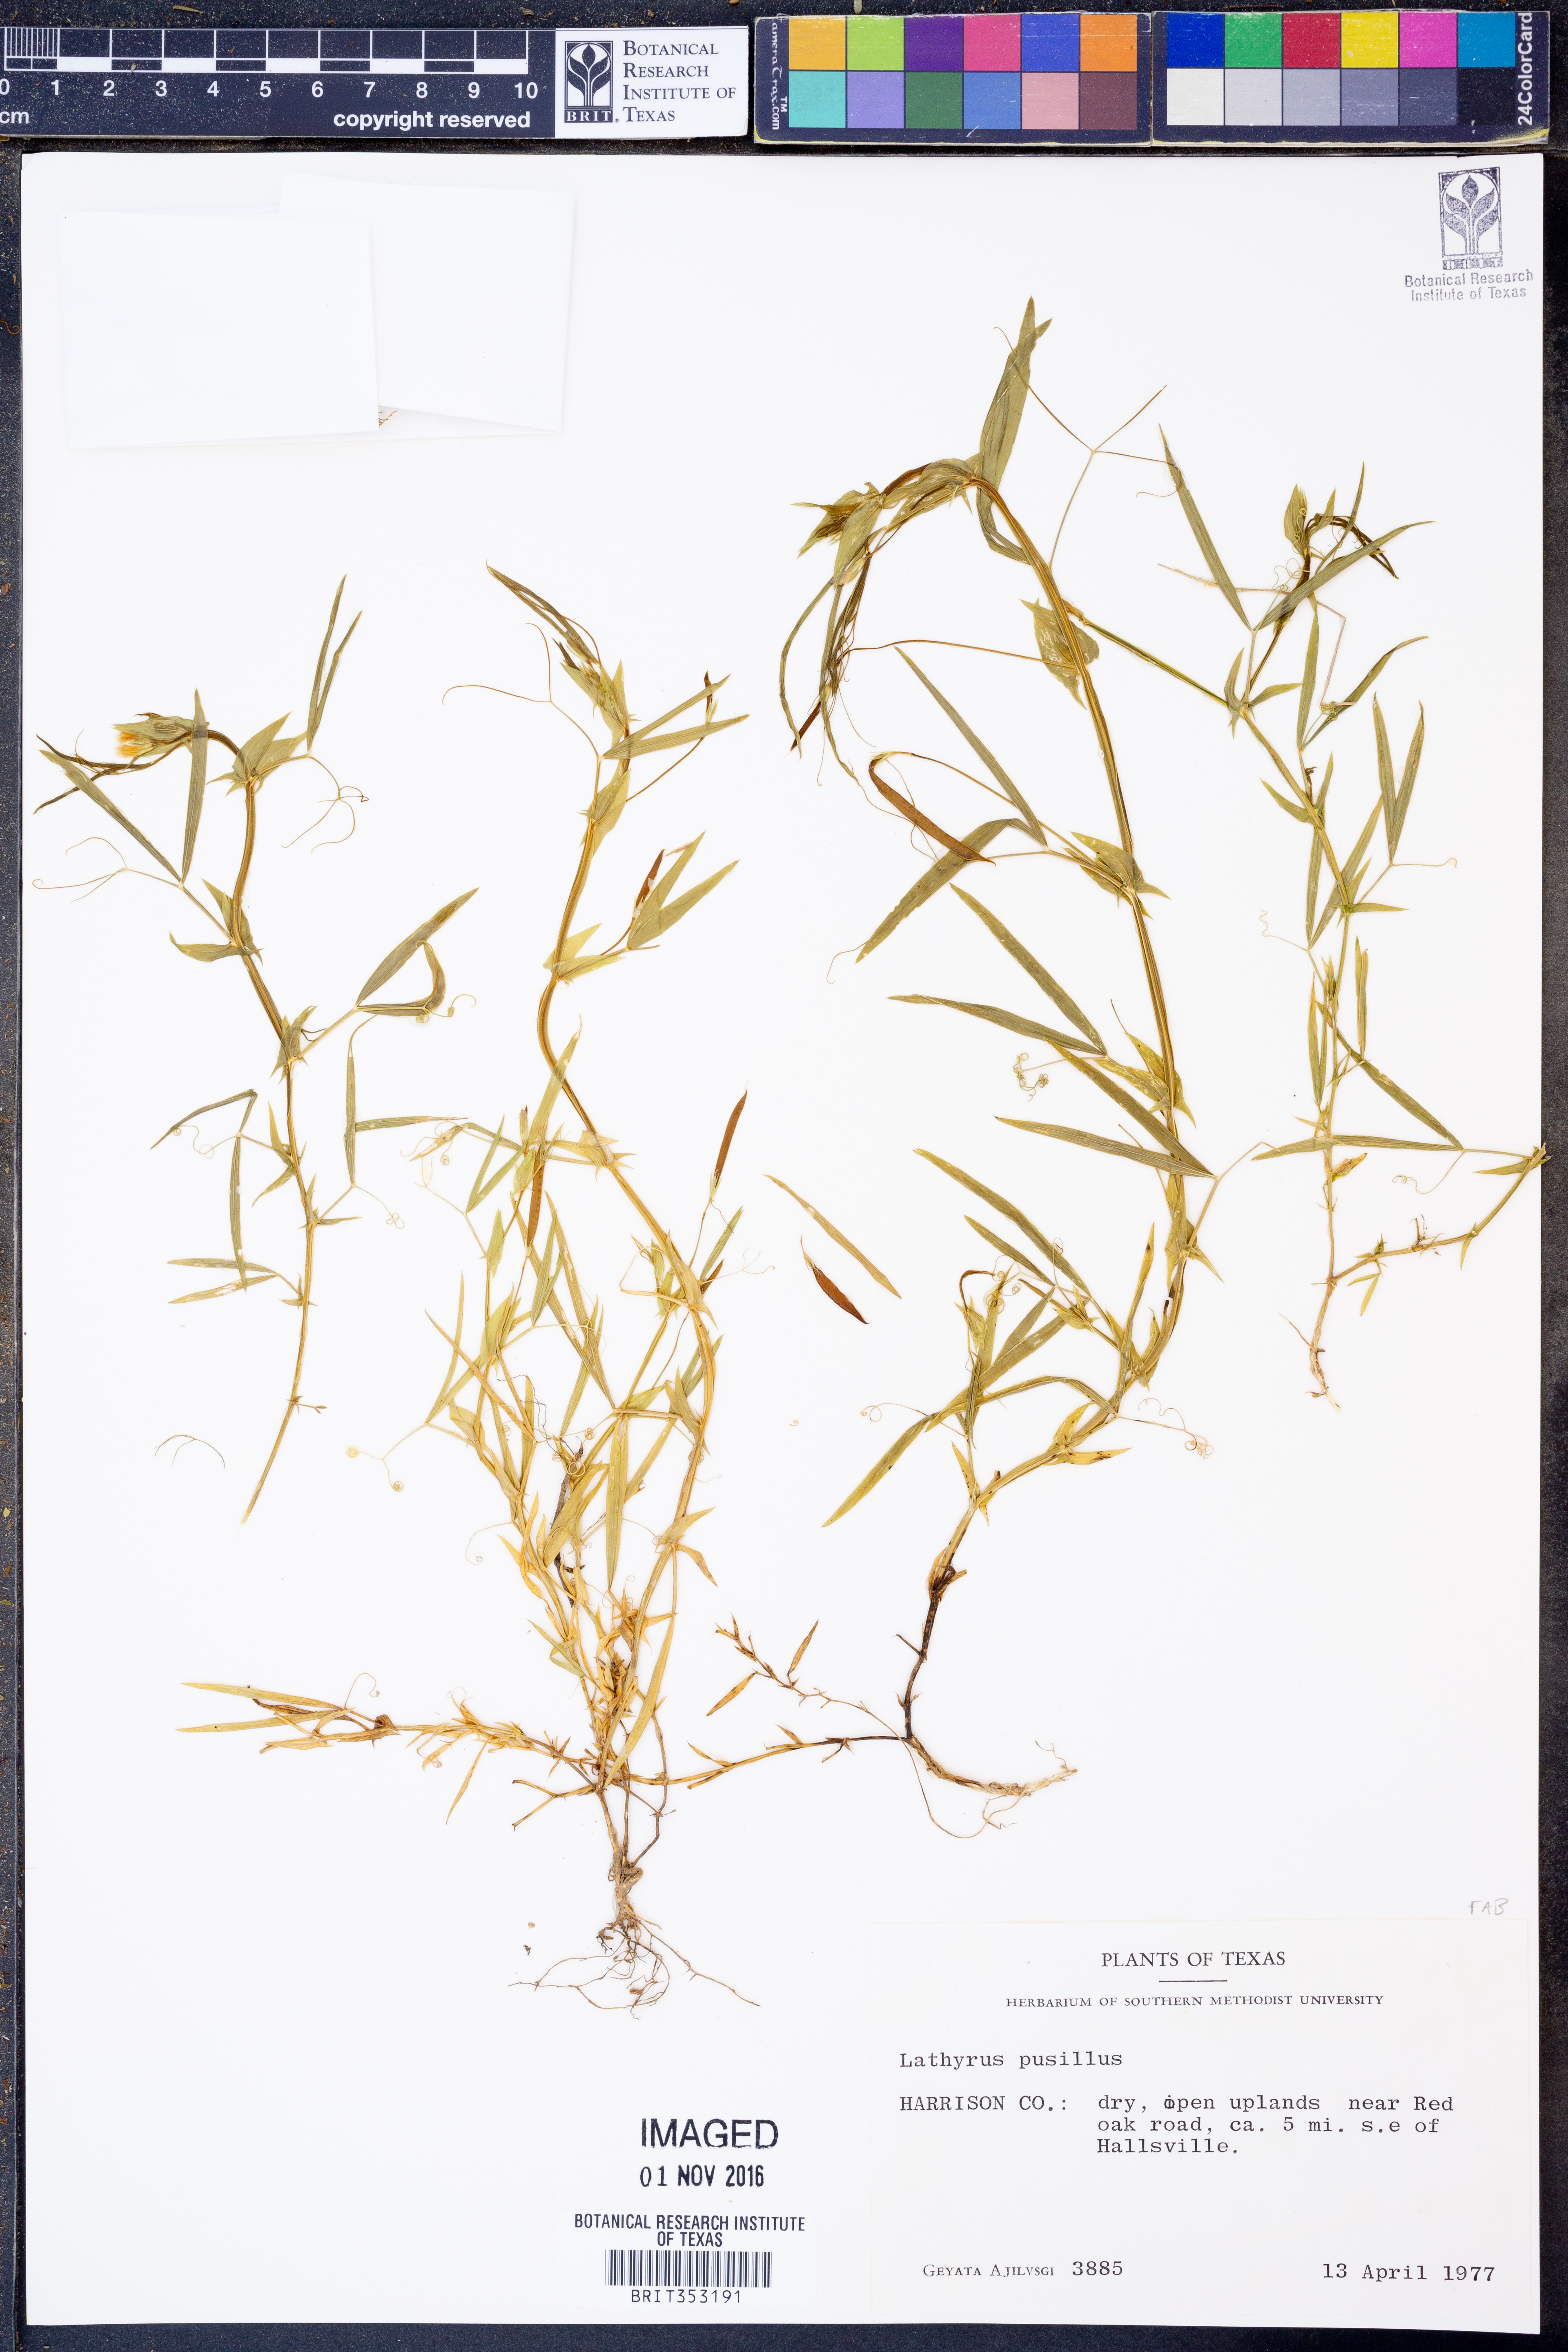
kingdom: Plantae
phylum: Tracheophyta
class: Magnoliopsida
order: Fabales
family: Fabaceae
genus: Lathyrus
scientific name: Lathyrus pusillus
